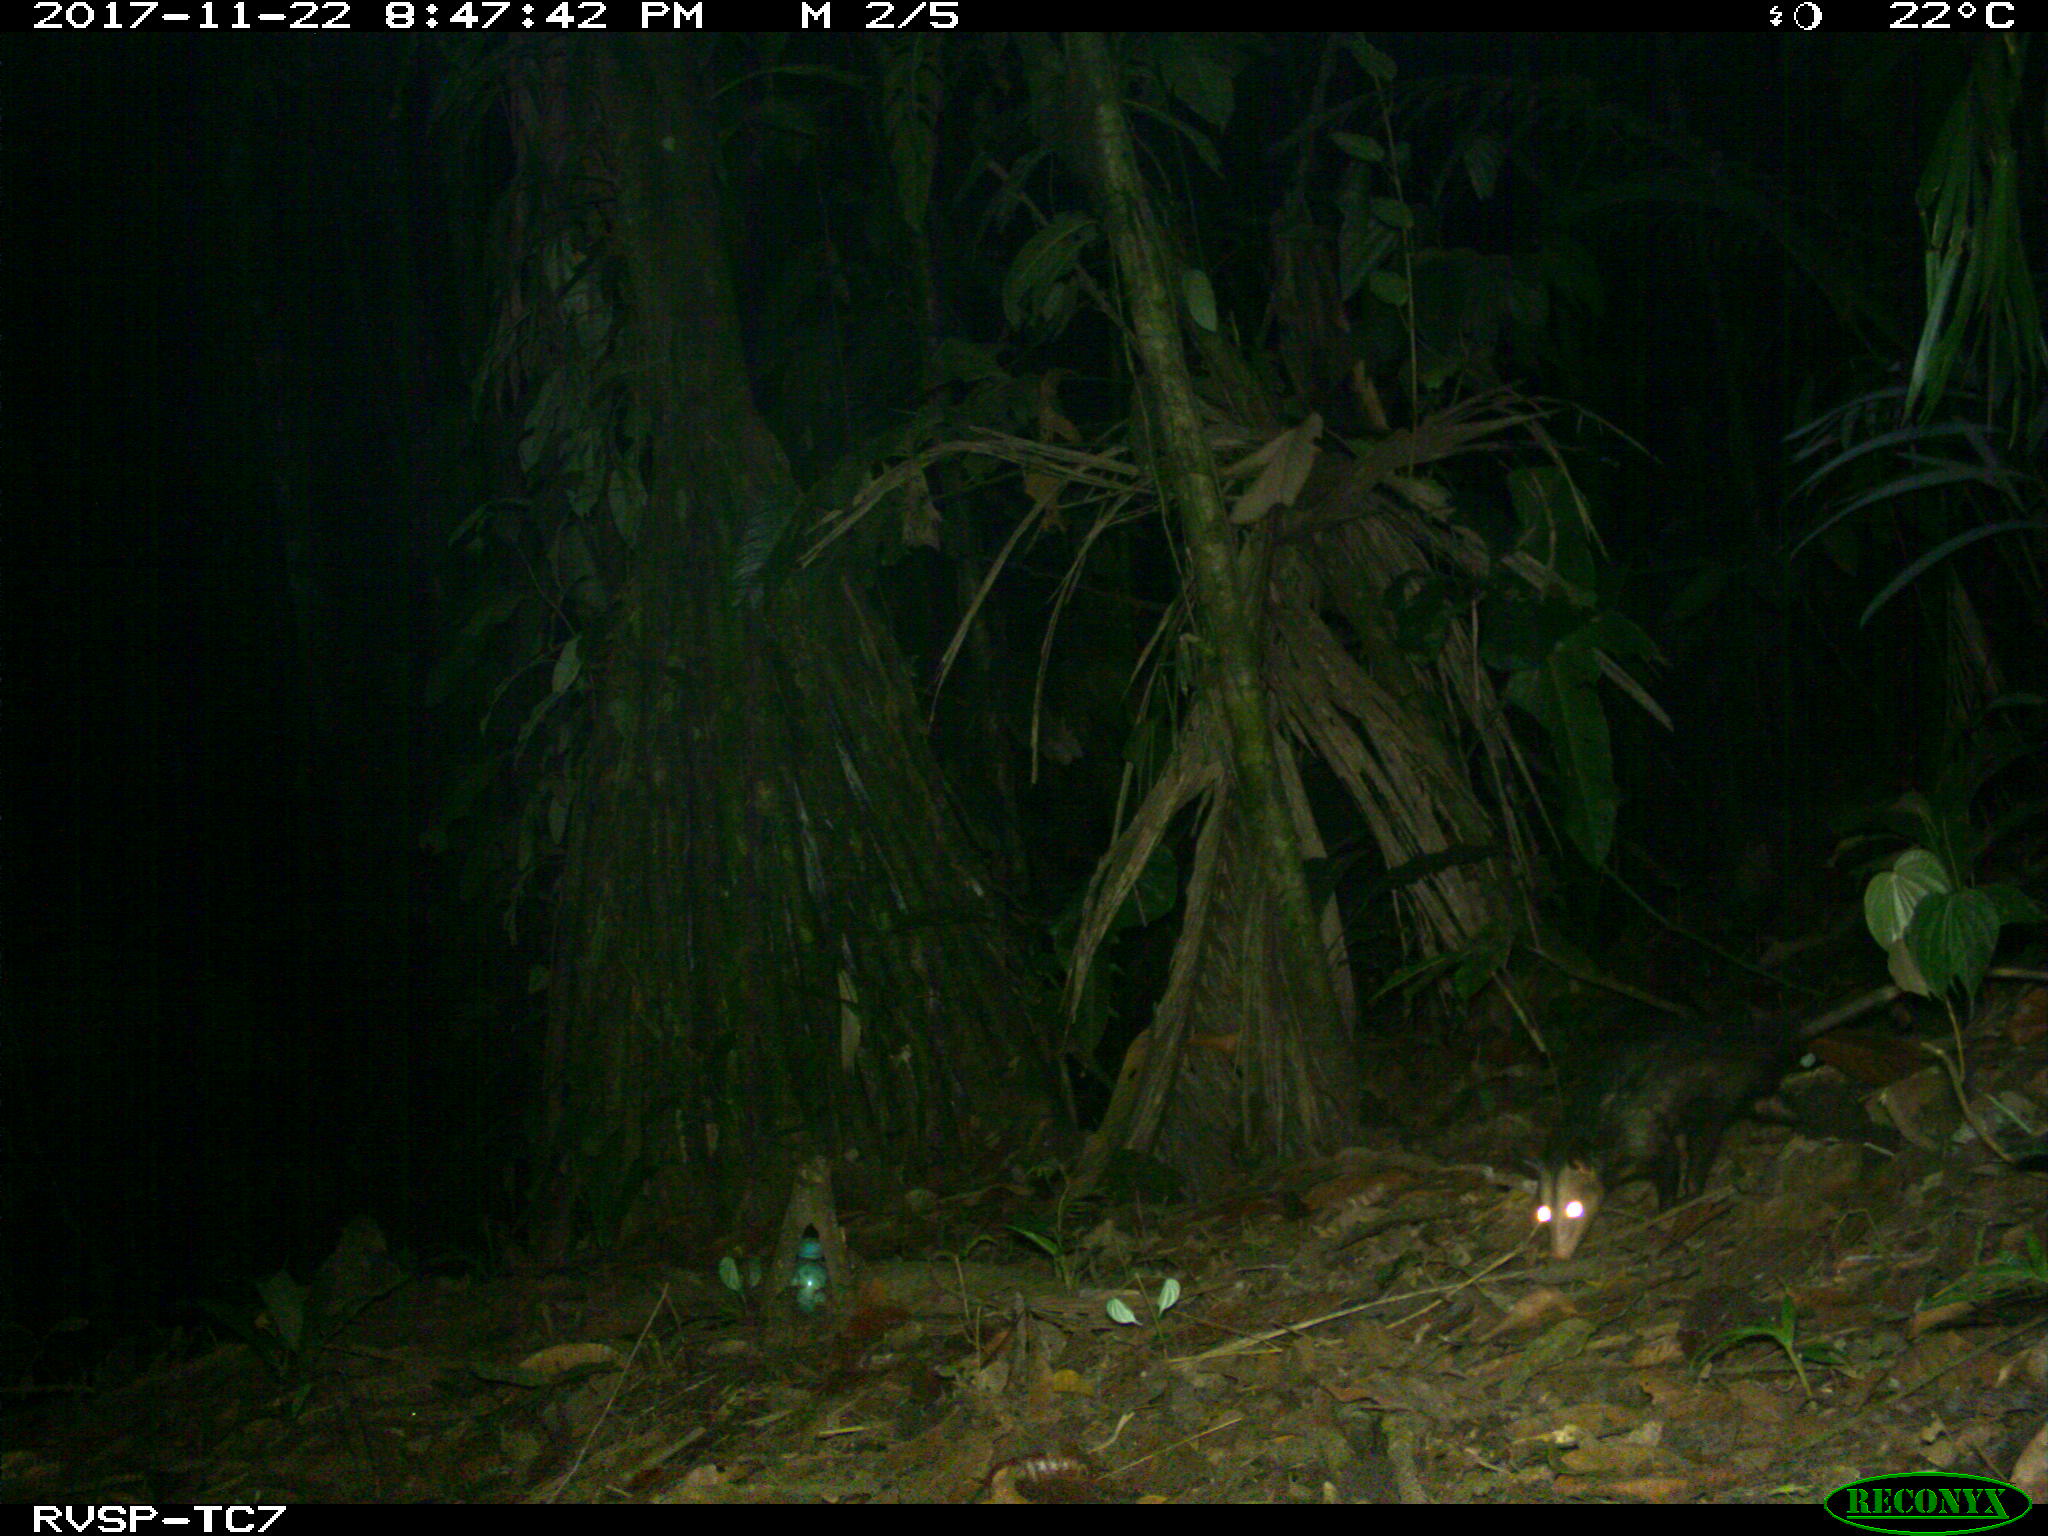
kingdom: Animalia
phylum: Chordata
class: Mammalia
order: Didelphimorphia
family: Didelphidae
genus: Didelphis
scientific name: Didelphis marsupialis
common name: Common opossum
